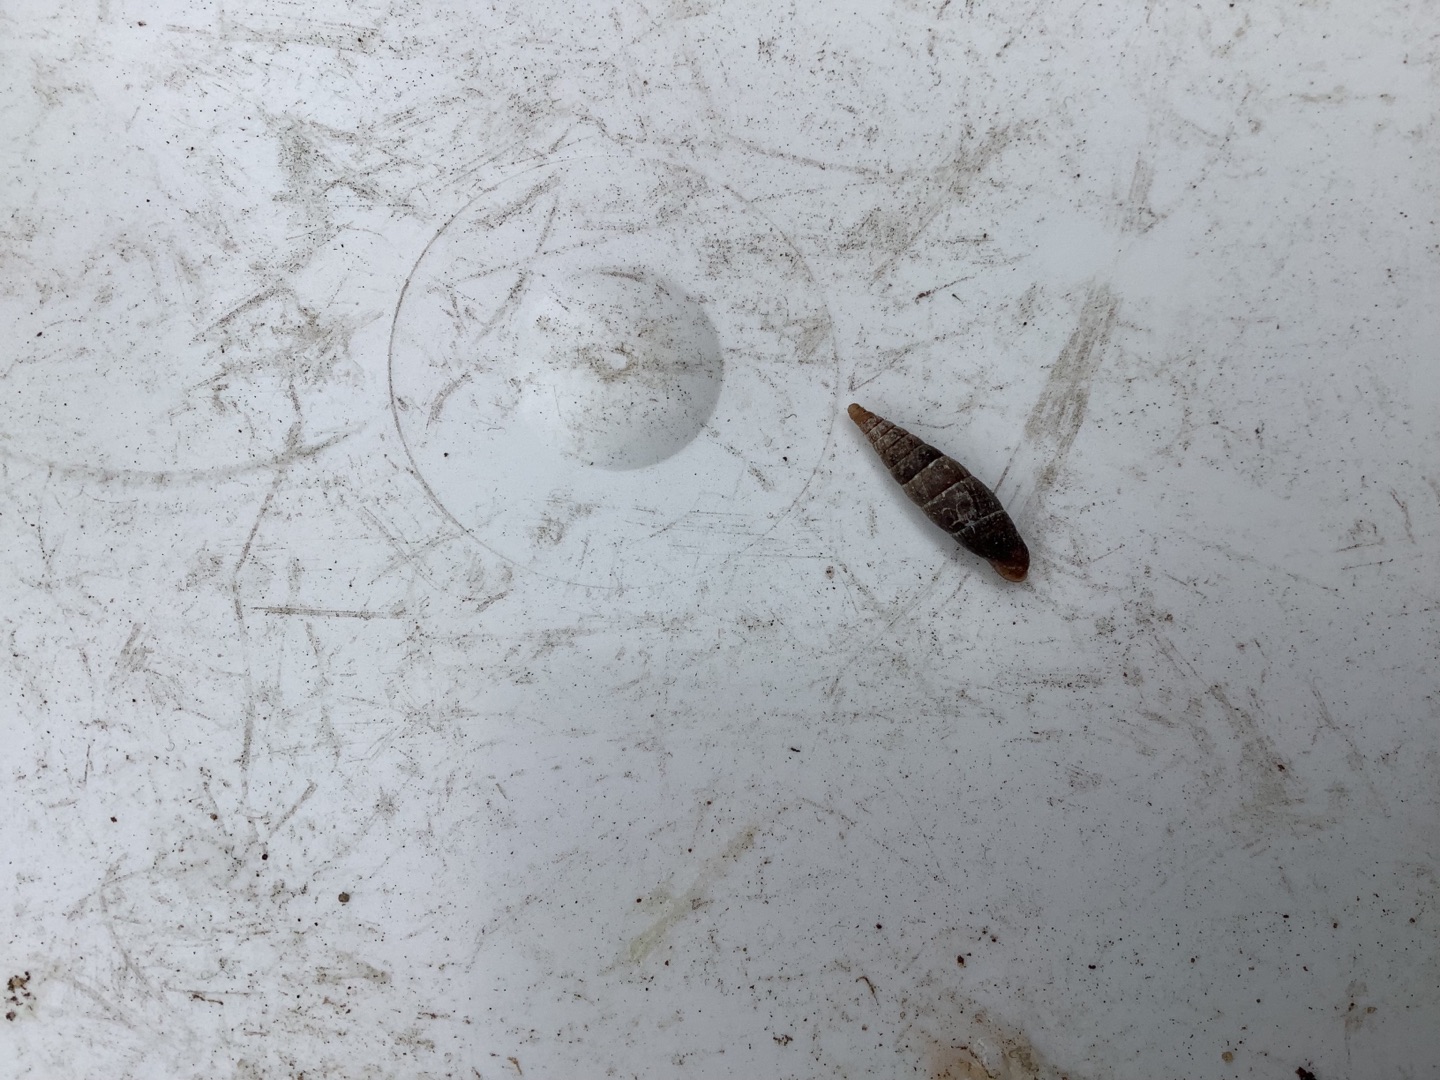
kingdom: Animalia
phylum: Mollusca
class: Gastropoda
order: Stylommatophora
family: Clausiliidae
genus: Cochlodina
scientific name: Cochlodina laminata
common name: Glat foldsnegl
